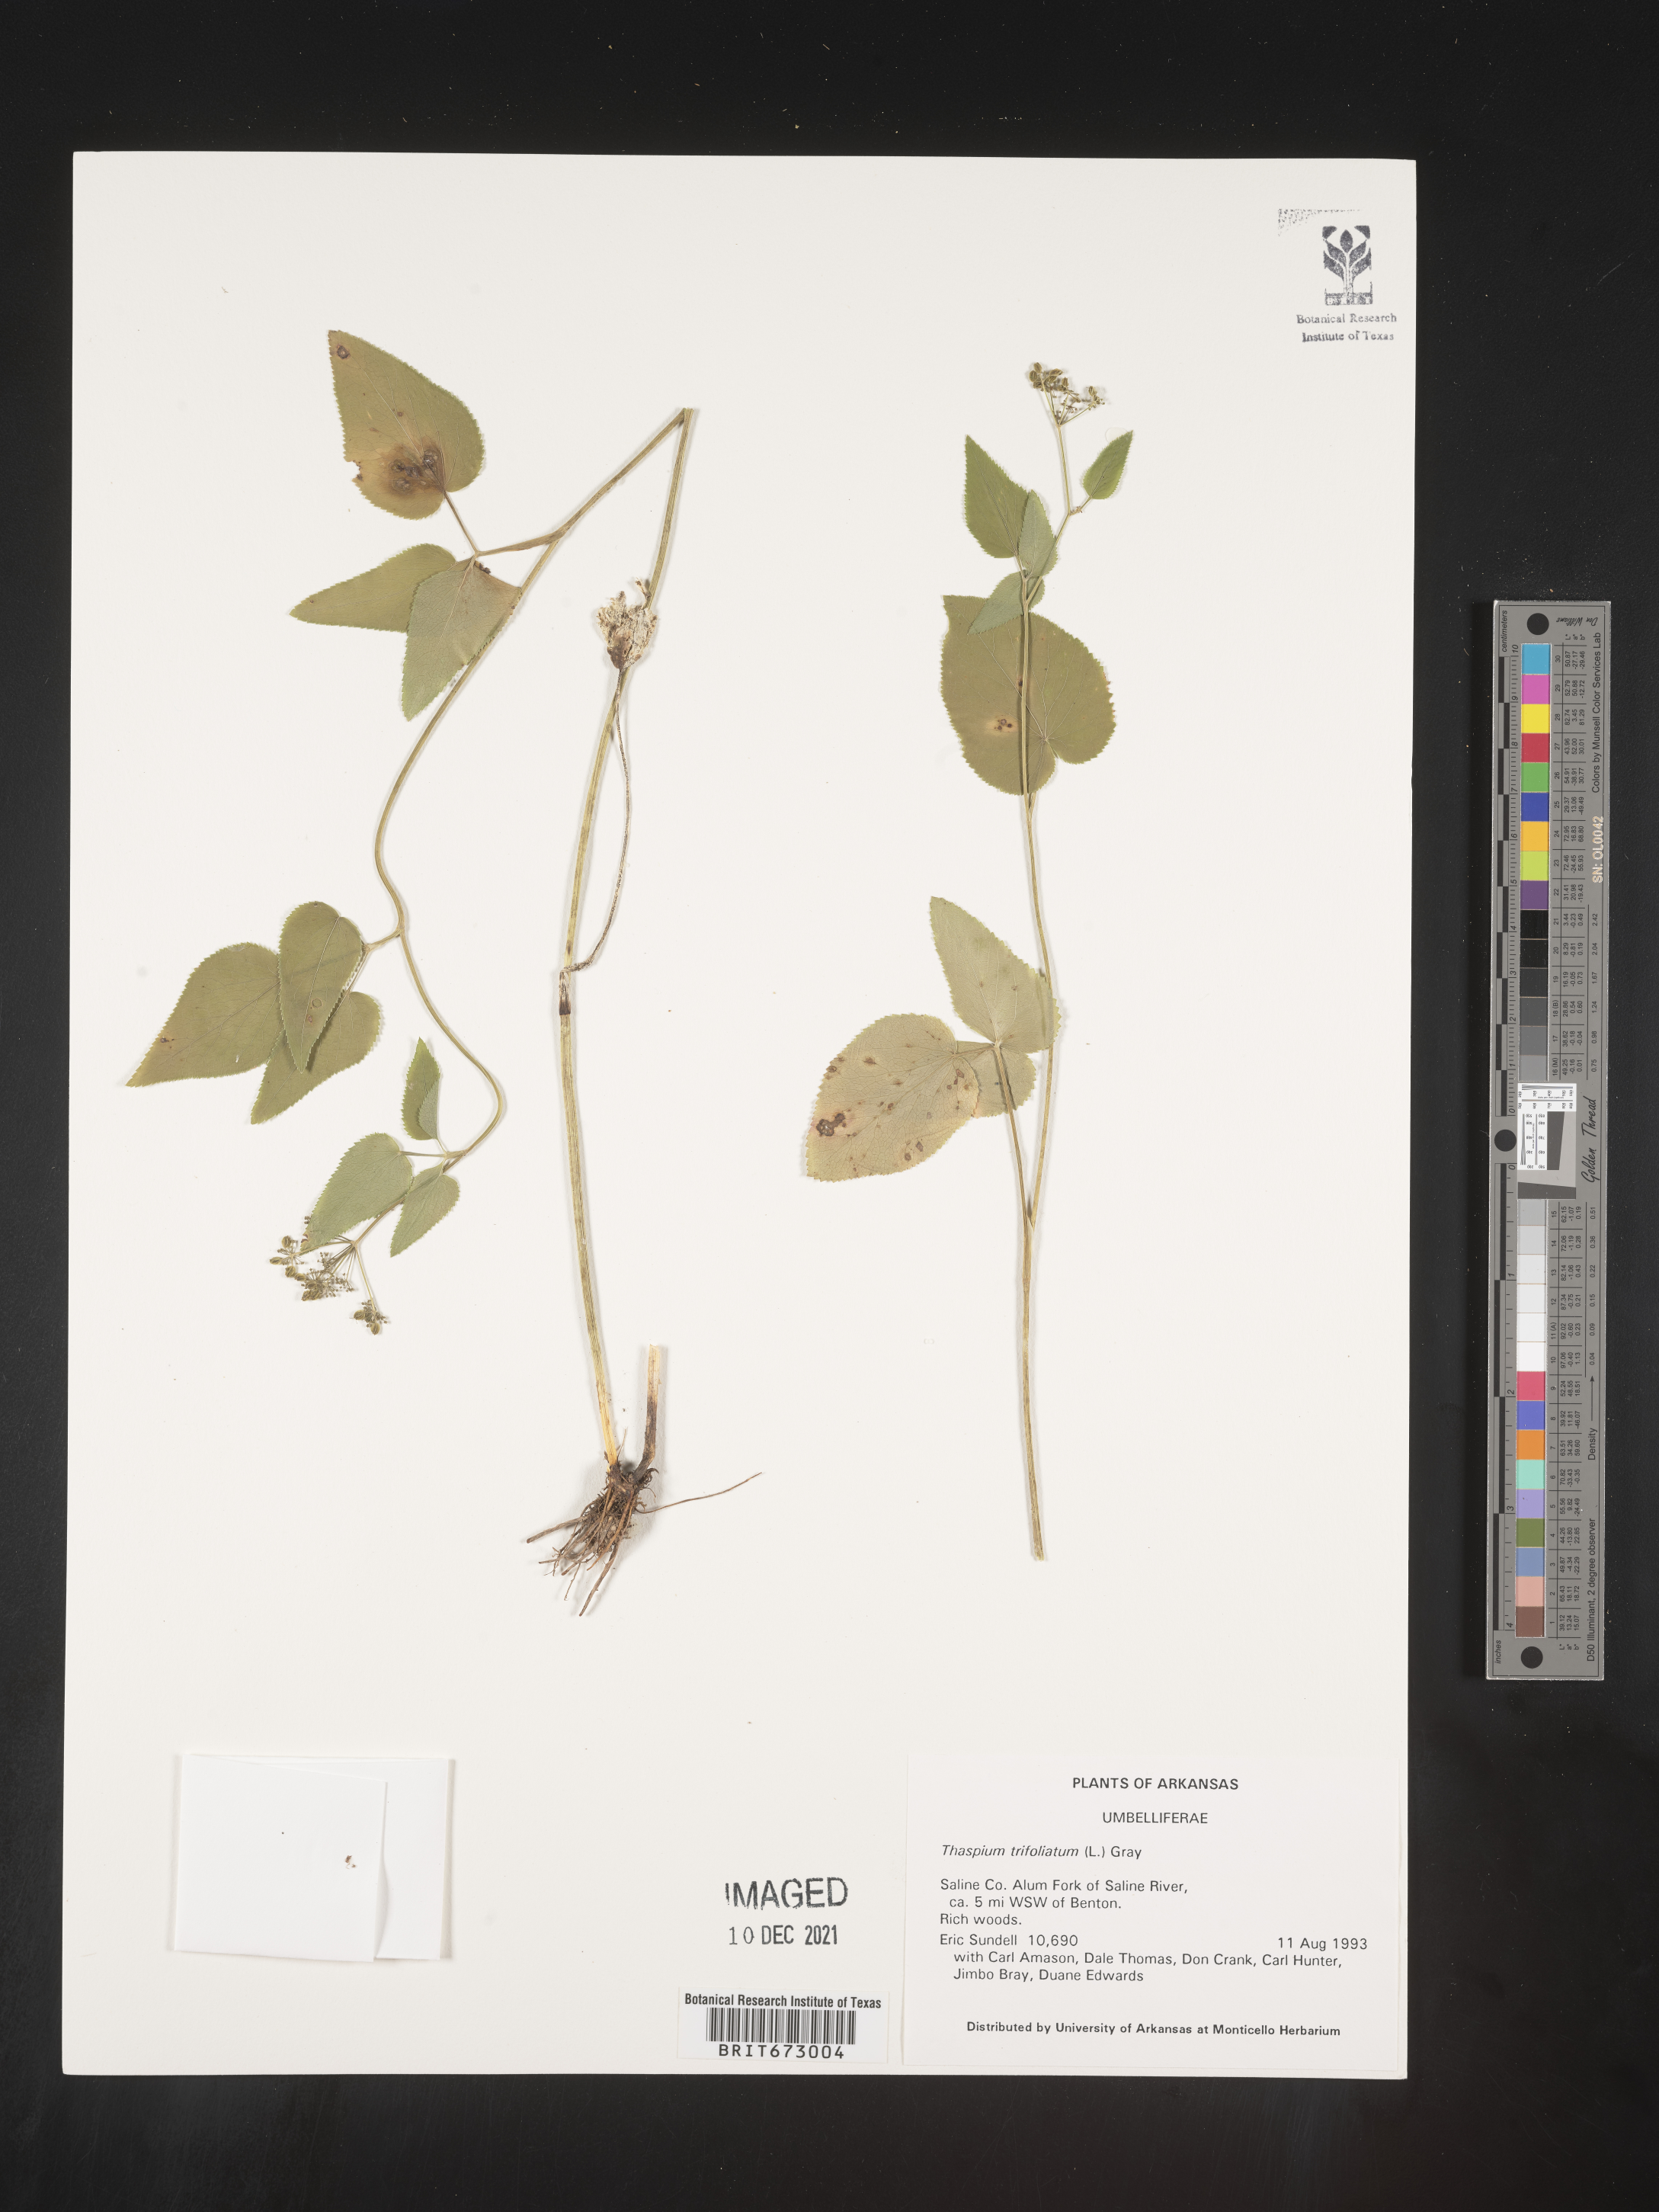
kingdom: Plantae
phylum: Tracheophyta
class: Magnoliopsida
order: Apiales
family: Apiaceae
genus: Thaspium
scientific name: Thaspium
